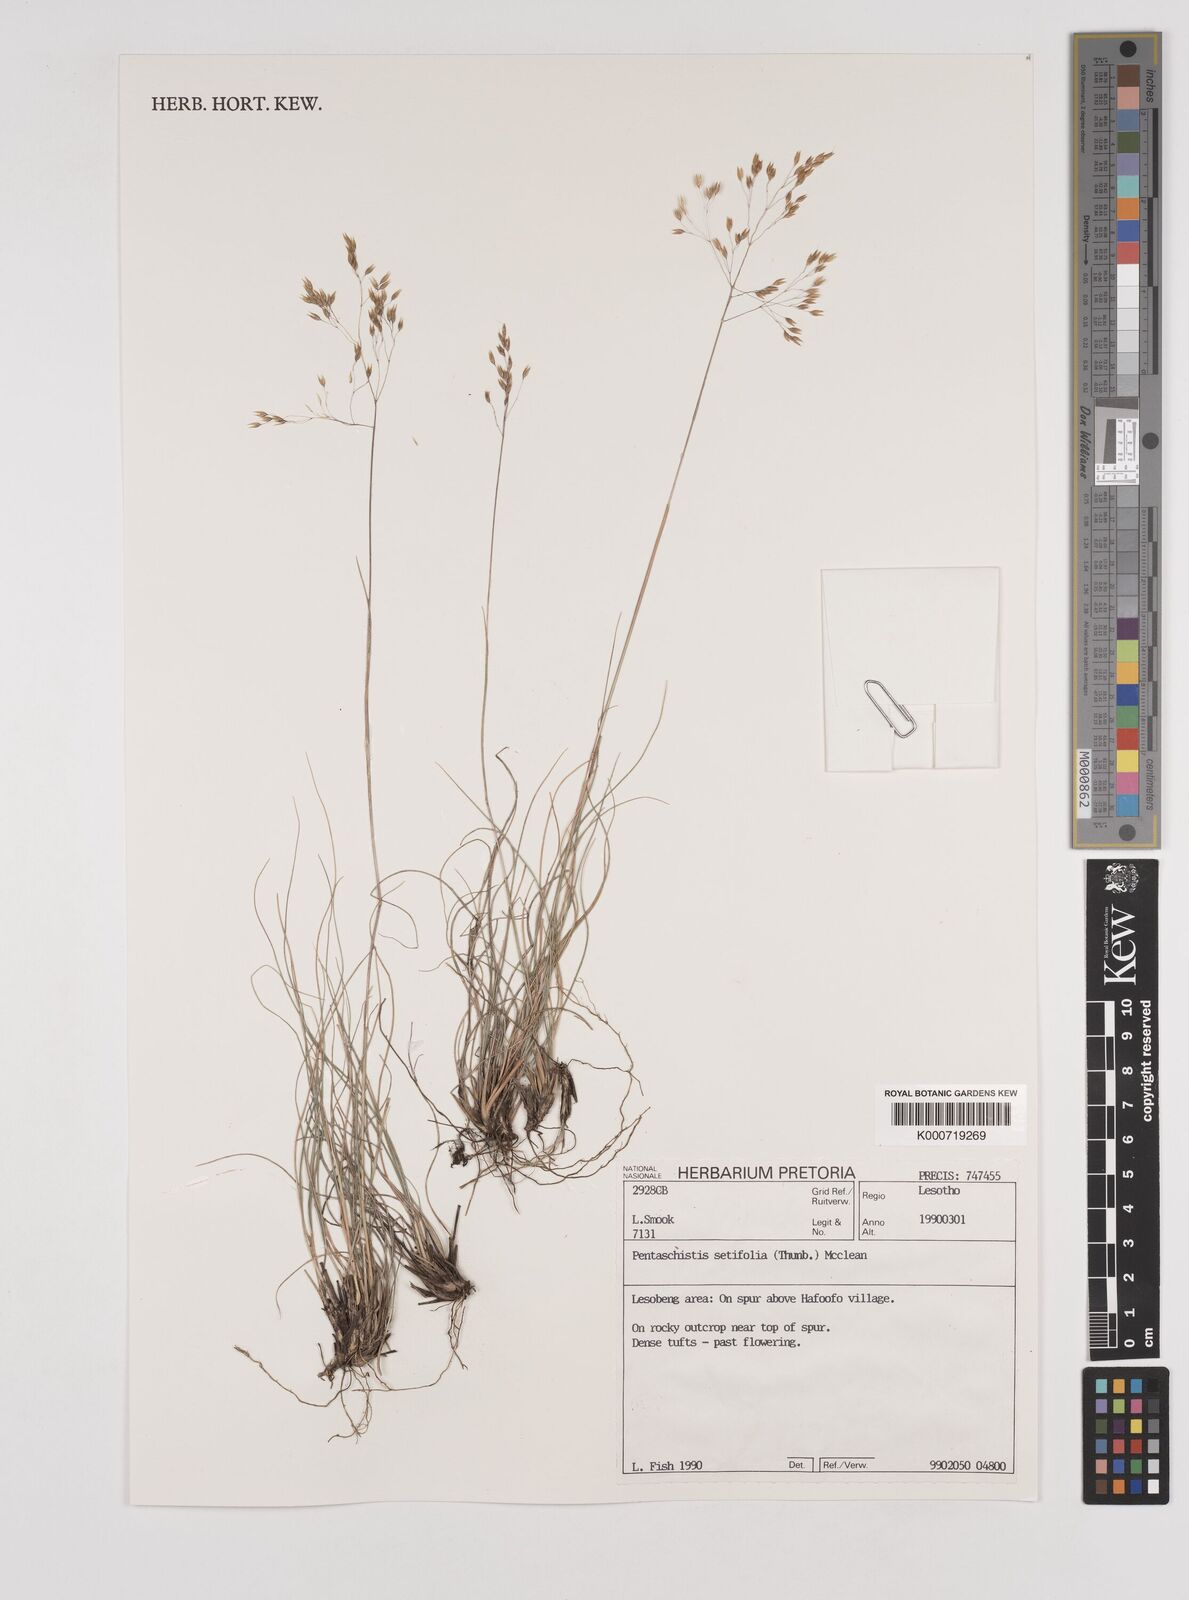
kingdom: Plantae
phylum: Tracheophyta
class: Liliopsida
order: Poales
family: Poaceae
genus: Pentameris
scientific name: Pentameris setifolia
